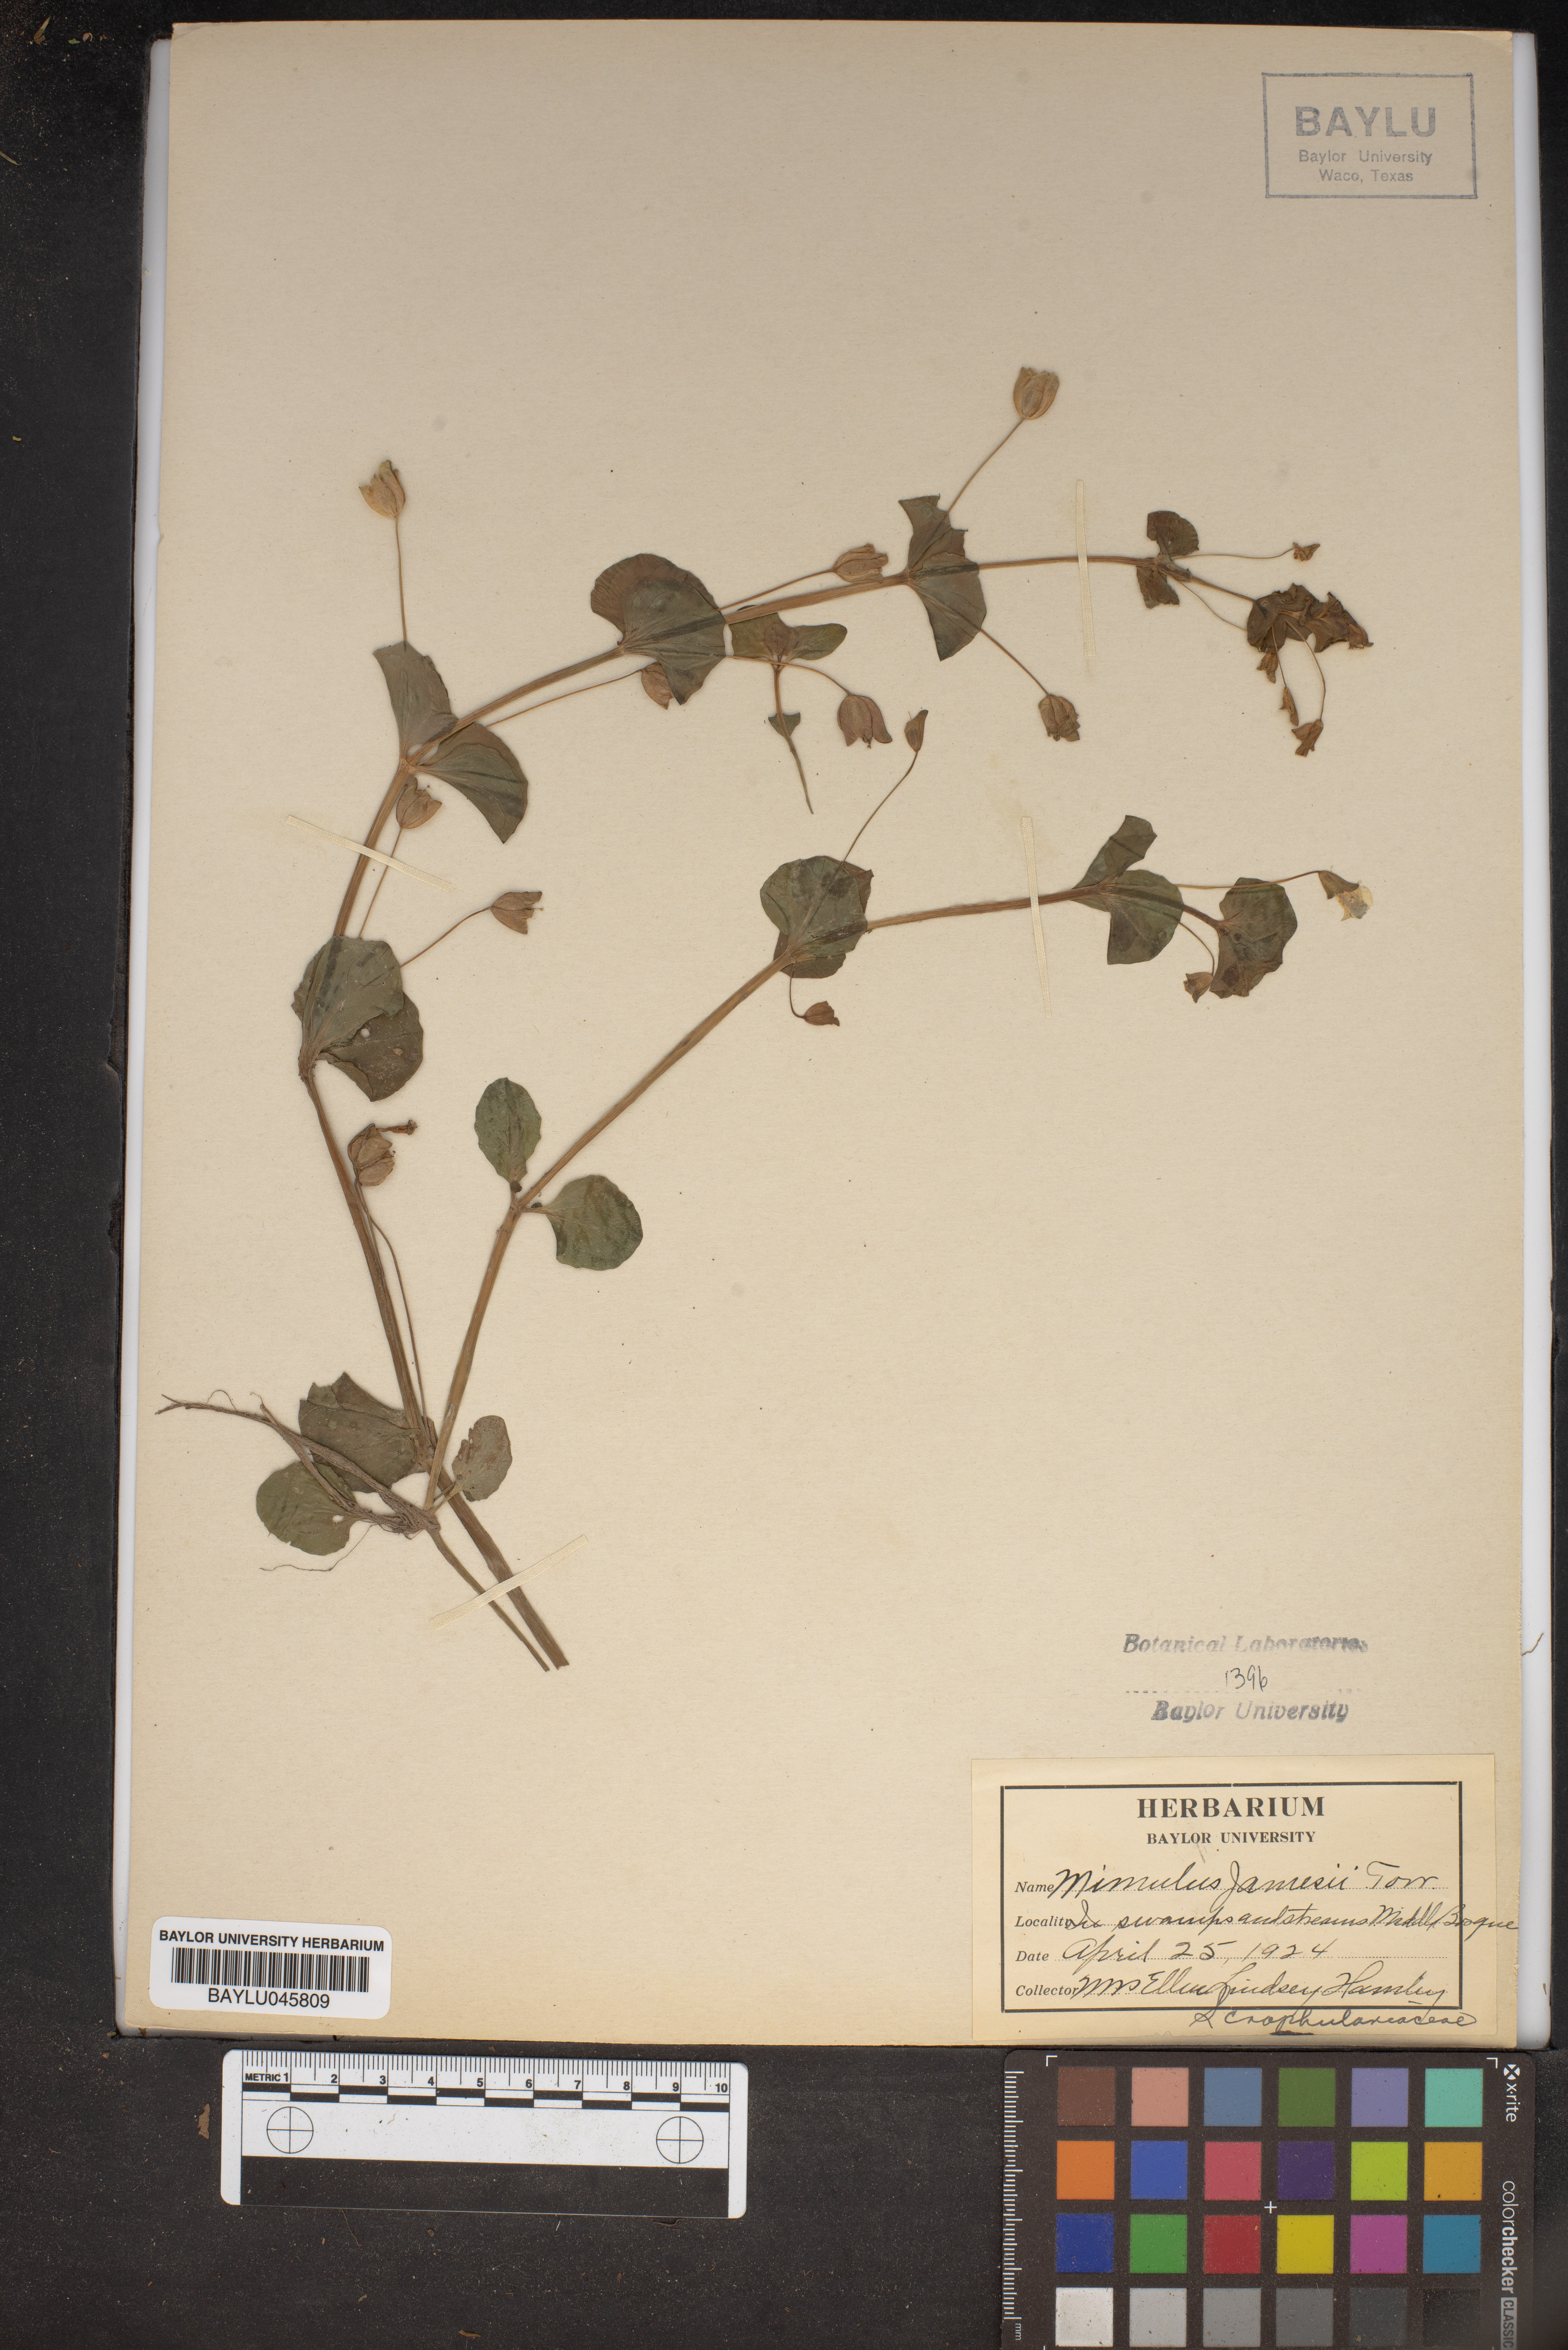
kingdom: Plantae
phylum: Tracheophyta
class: Magnoliopsida
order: Lamiales
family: Phrymaceae
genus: Erythranthe
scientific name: Erythranthe geyeri
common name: Geyer's monkeyflower
